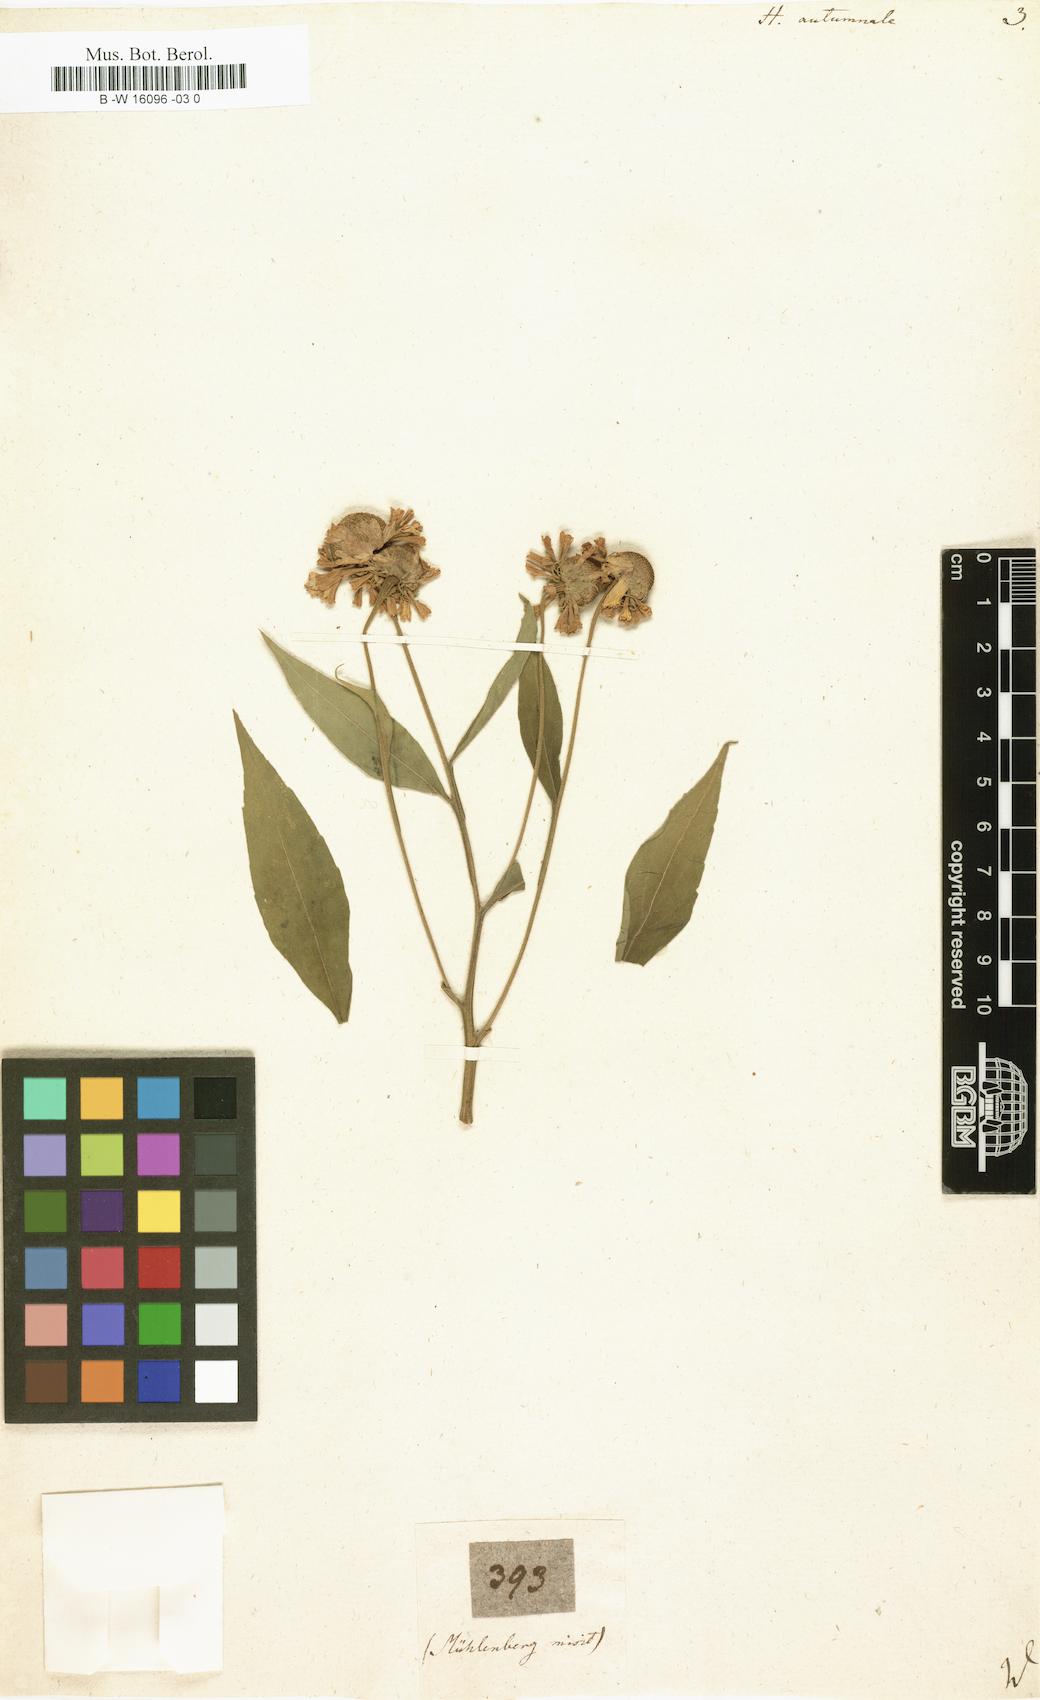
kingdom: Plantae
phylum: Tracheophyta
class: Magnoliopsida
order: Asterales
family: Asteraceae
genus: Helenium
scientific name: Helenium autumnale
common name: Sneezeweed
